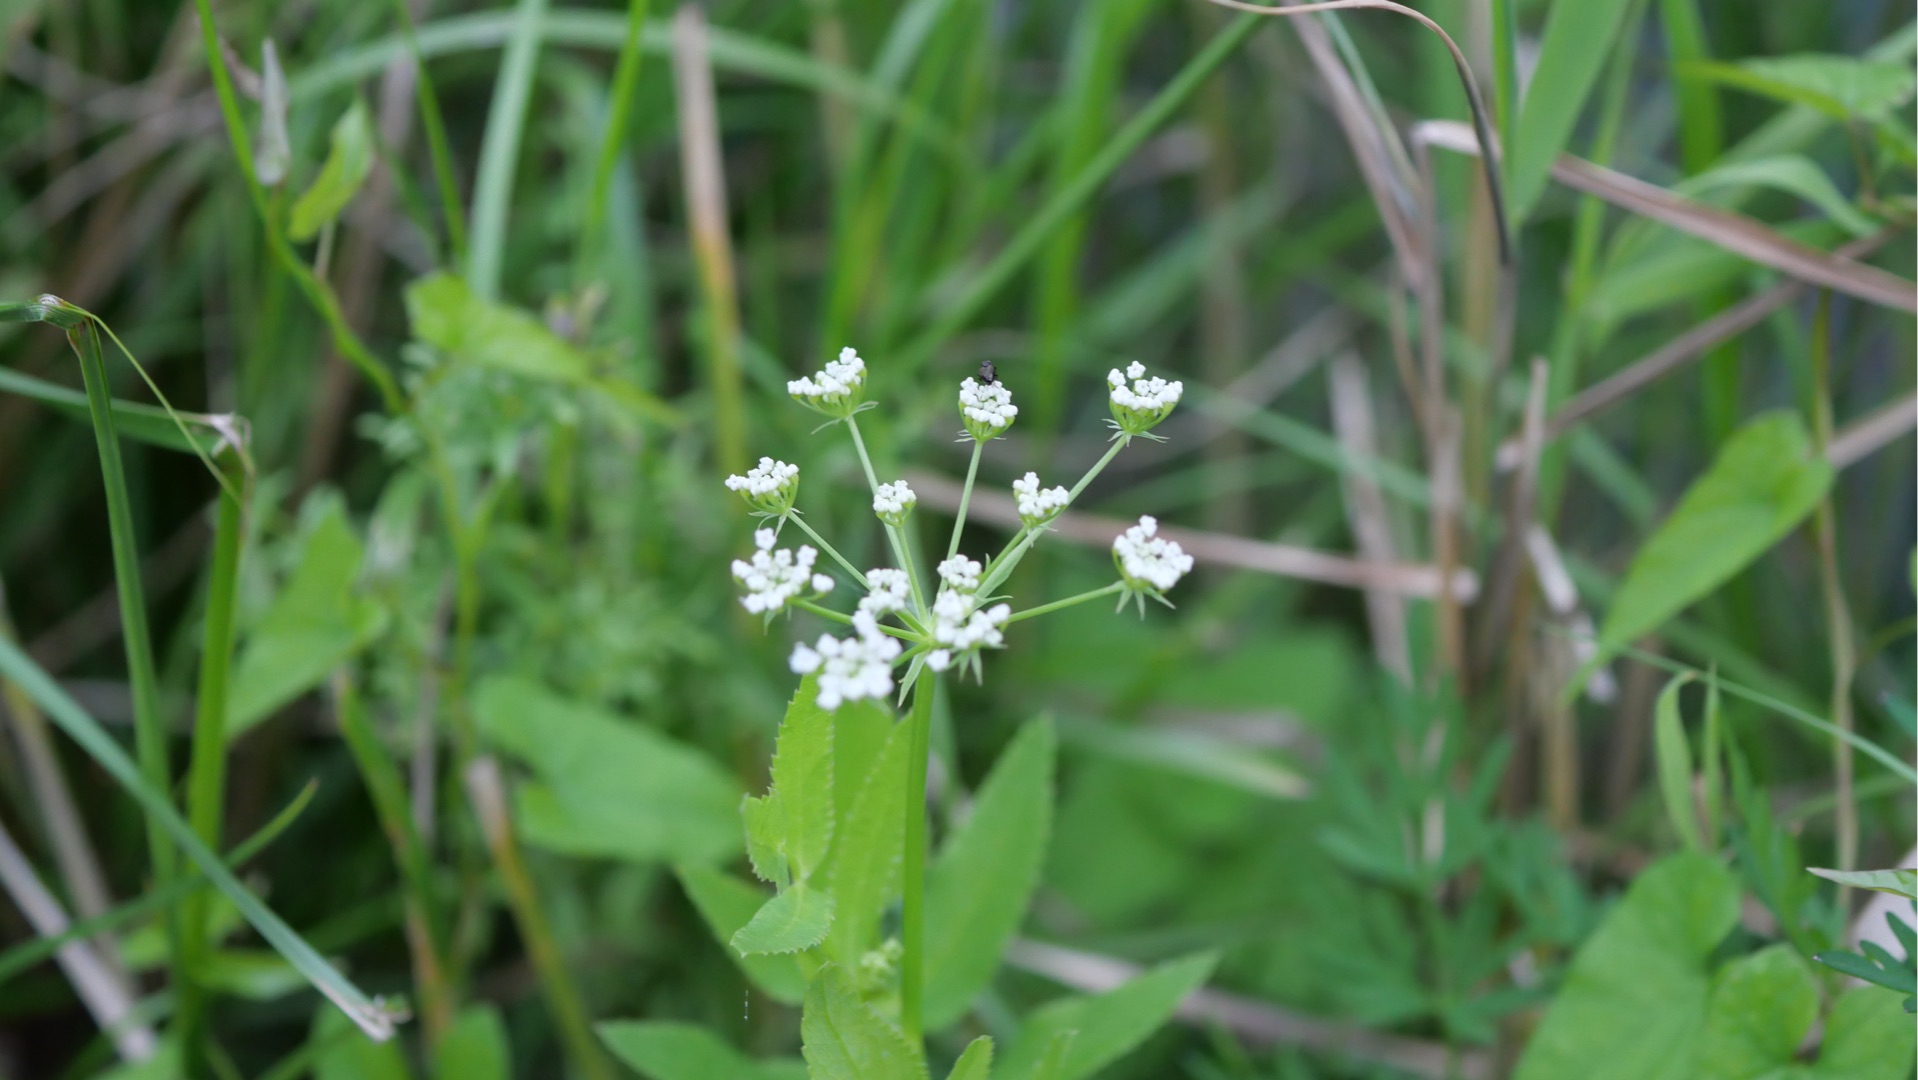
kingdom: Plantae
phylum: Tracheophyta
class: Magnoliopsida
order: Apiales
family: Apiaceae
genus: Sium
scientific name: Sium latifolium
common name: Bredbladet mærke
